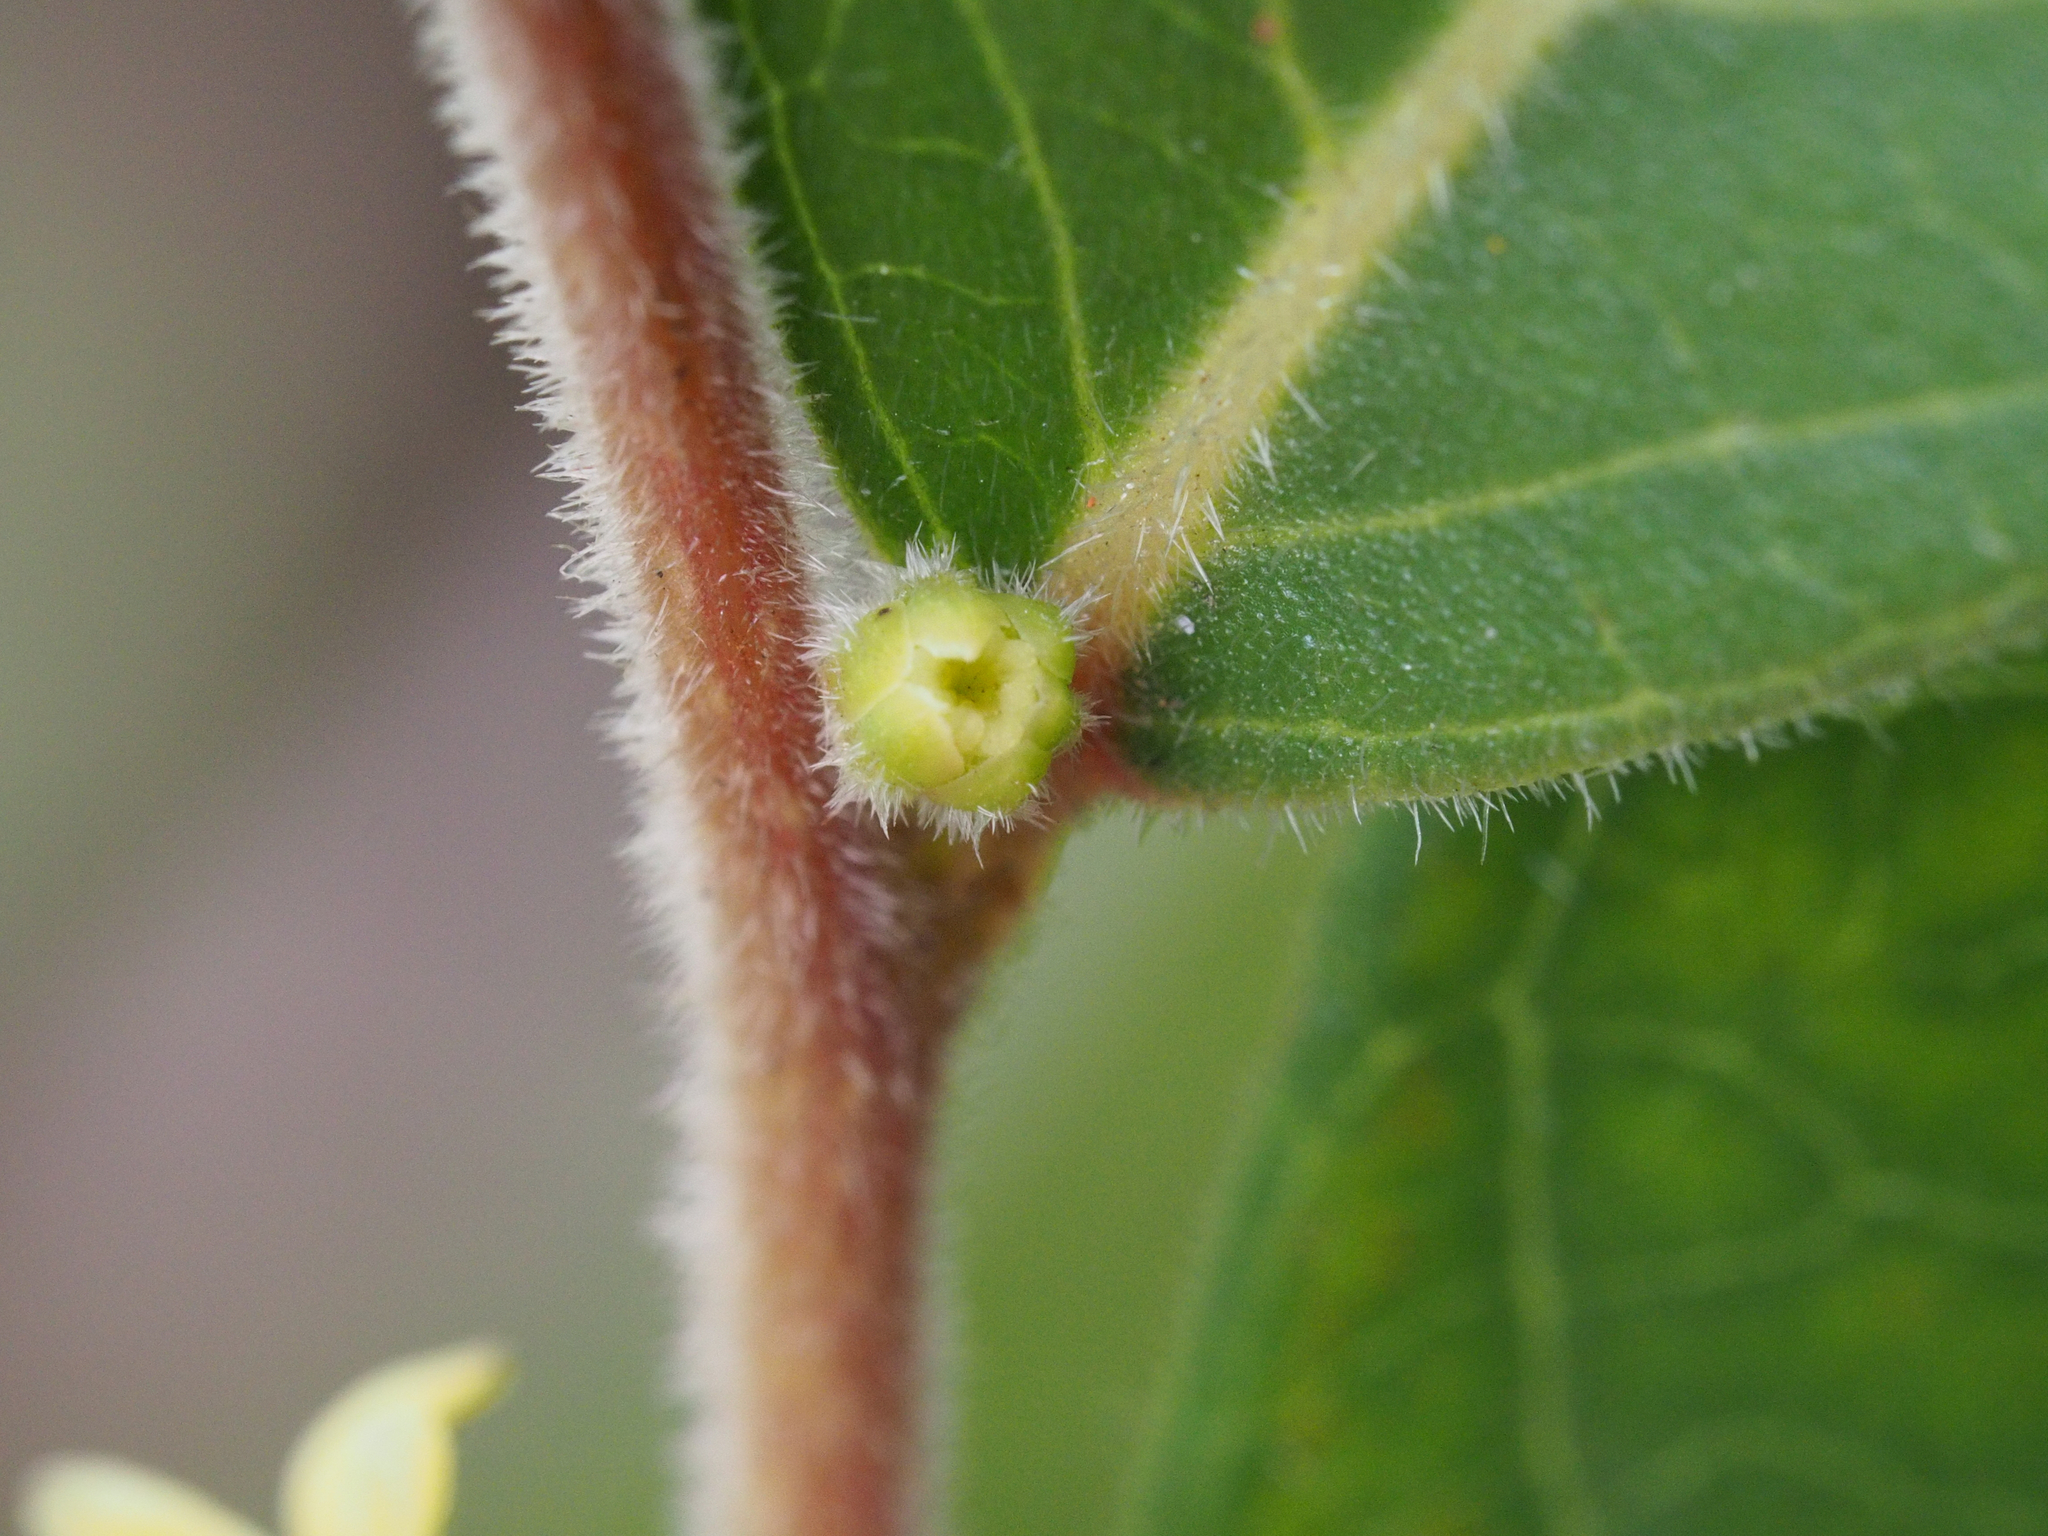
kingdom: Plantae
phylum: Tracheophyta
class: Magnoliopsida
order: Malpighiales
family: Phyllanthaceae
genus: Glochidion
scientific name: Glochidion puberum
